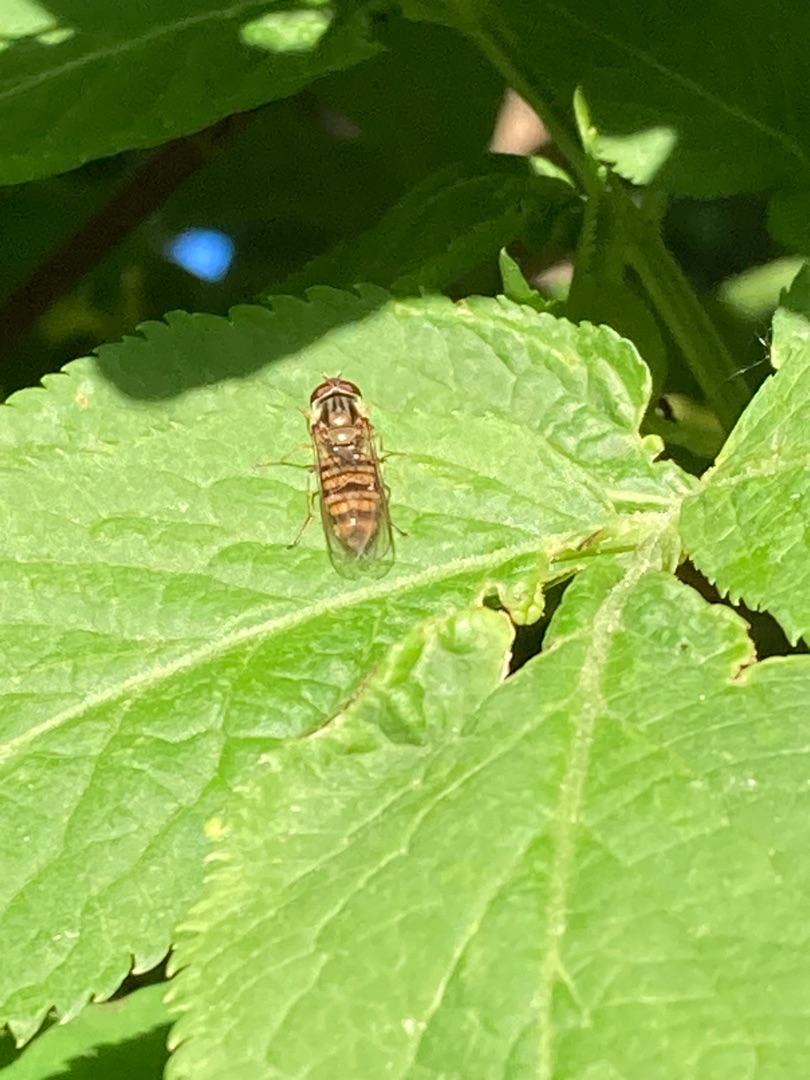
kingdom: Animalia
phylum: Arthropoda
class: Insecta
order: Diptera
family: Syrphidae
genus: Episyrphus
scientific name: Episyrphus balteatus
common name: Dobbeltbåndet svirreflue
